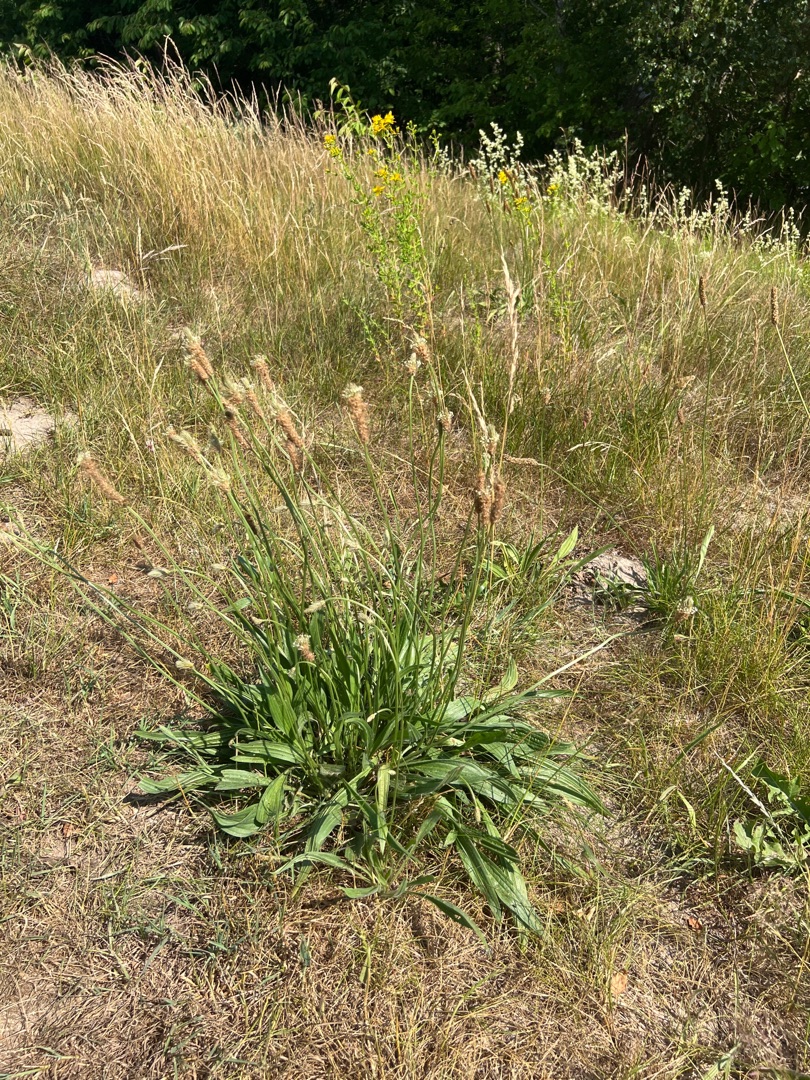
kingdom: Plantae
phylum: Tracheophyta
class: Magnoliopsida
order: Lamiales
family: Plantaginaceae
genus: Plantago
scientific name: Plantago lanceolata
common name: Lancet-vejbred
